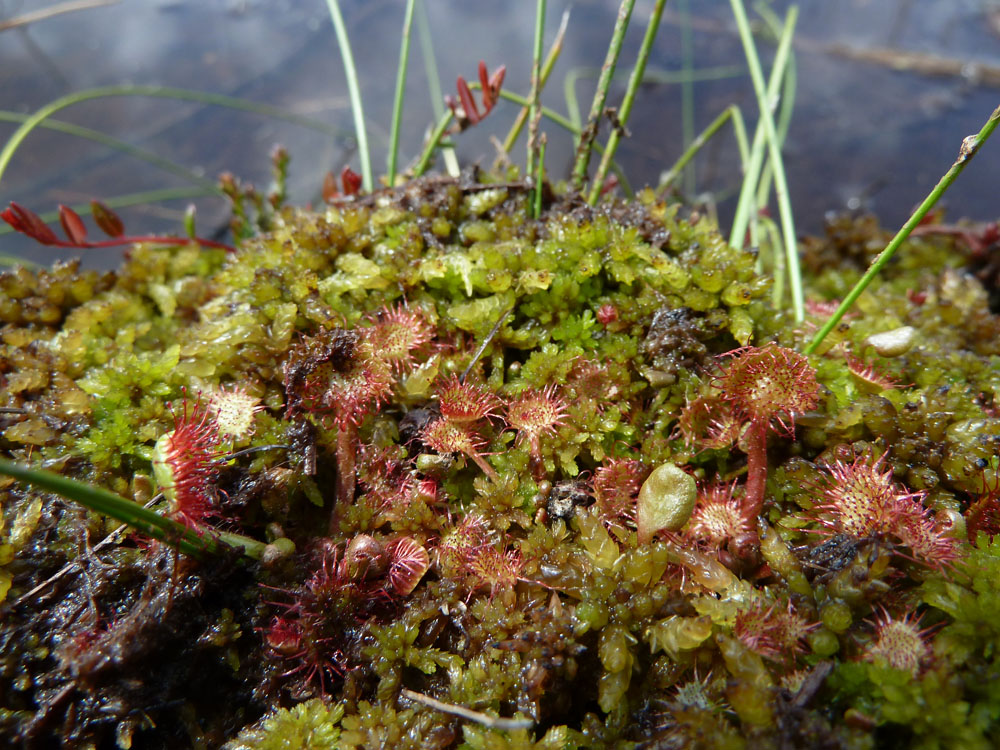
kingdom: Plantae
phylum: Tracheophyta
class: Magnoliopsida
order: Caryophyllales
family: Droseraceae
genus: Drosera
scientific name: Drosera rotundifolia
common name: Round-leaved sundew
